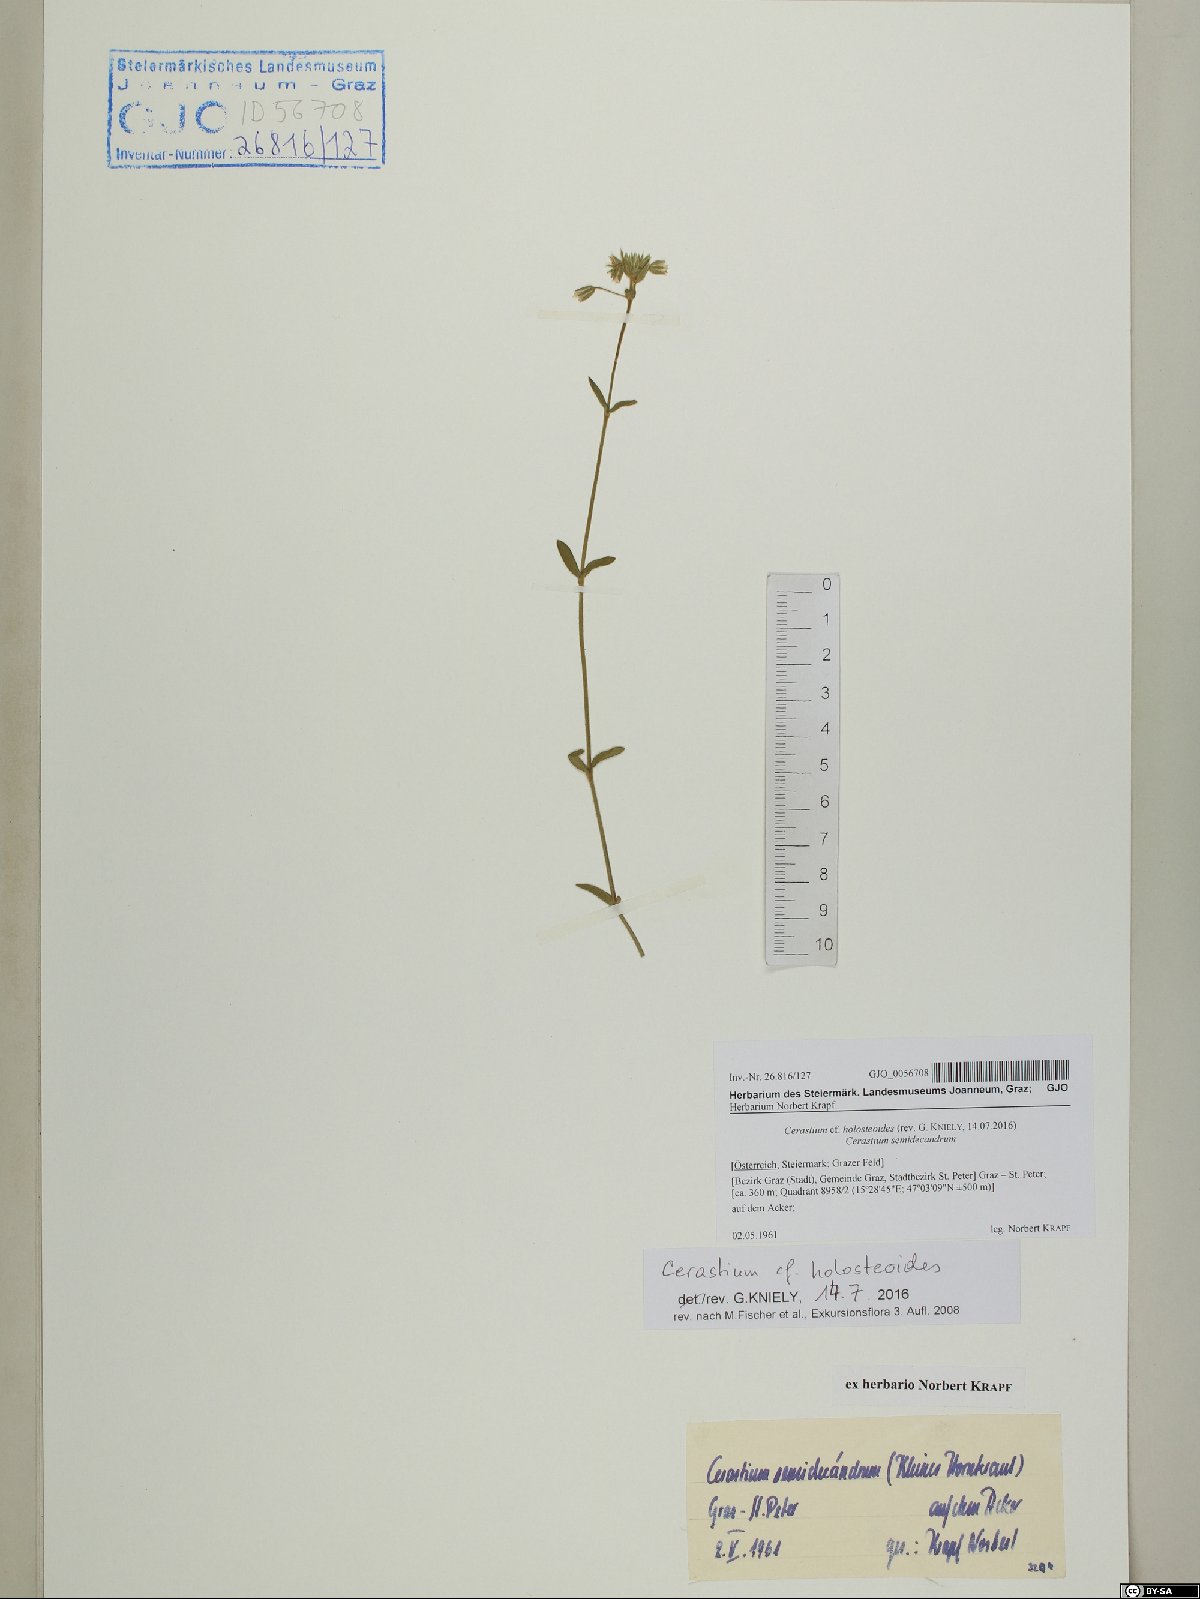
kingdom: Plantae
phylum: Tracheophyta
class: Magnoliopsida
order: Caryophyllales
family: Caryophyllaceae
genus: Cerastium
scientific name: Cerastium holosteoides
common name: Big chickweed
